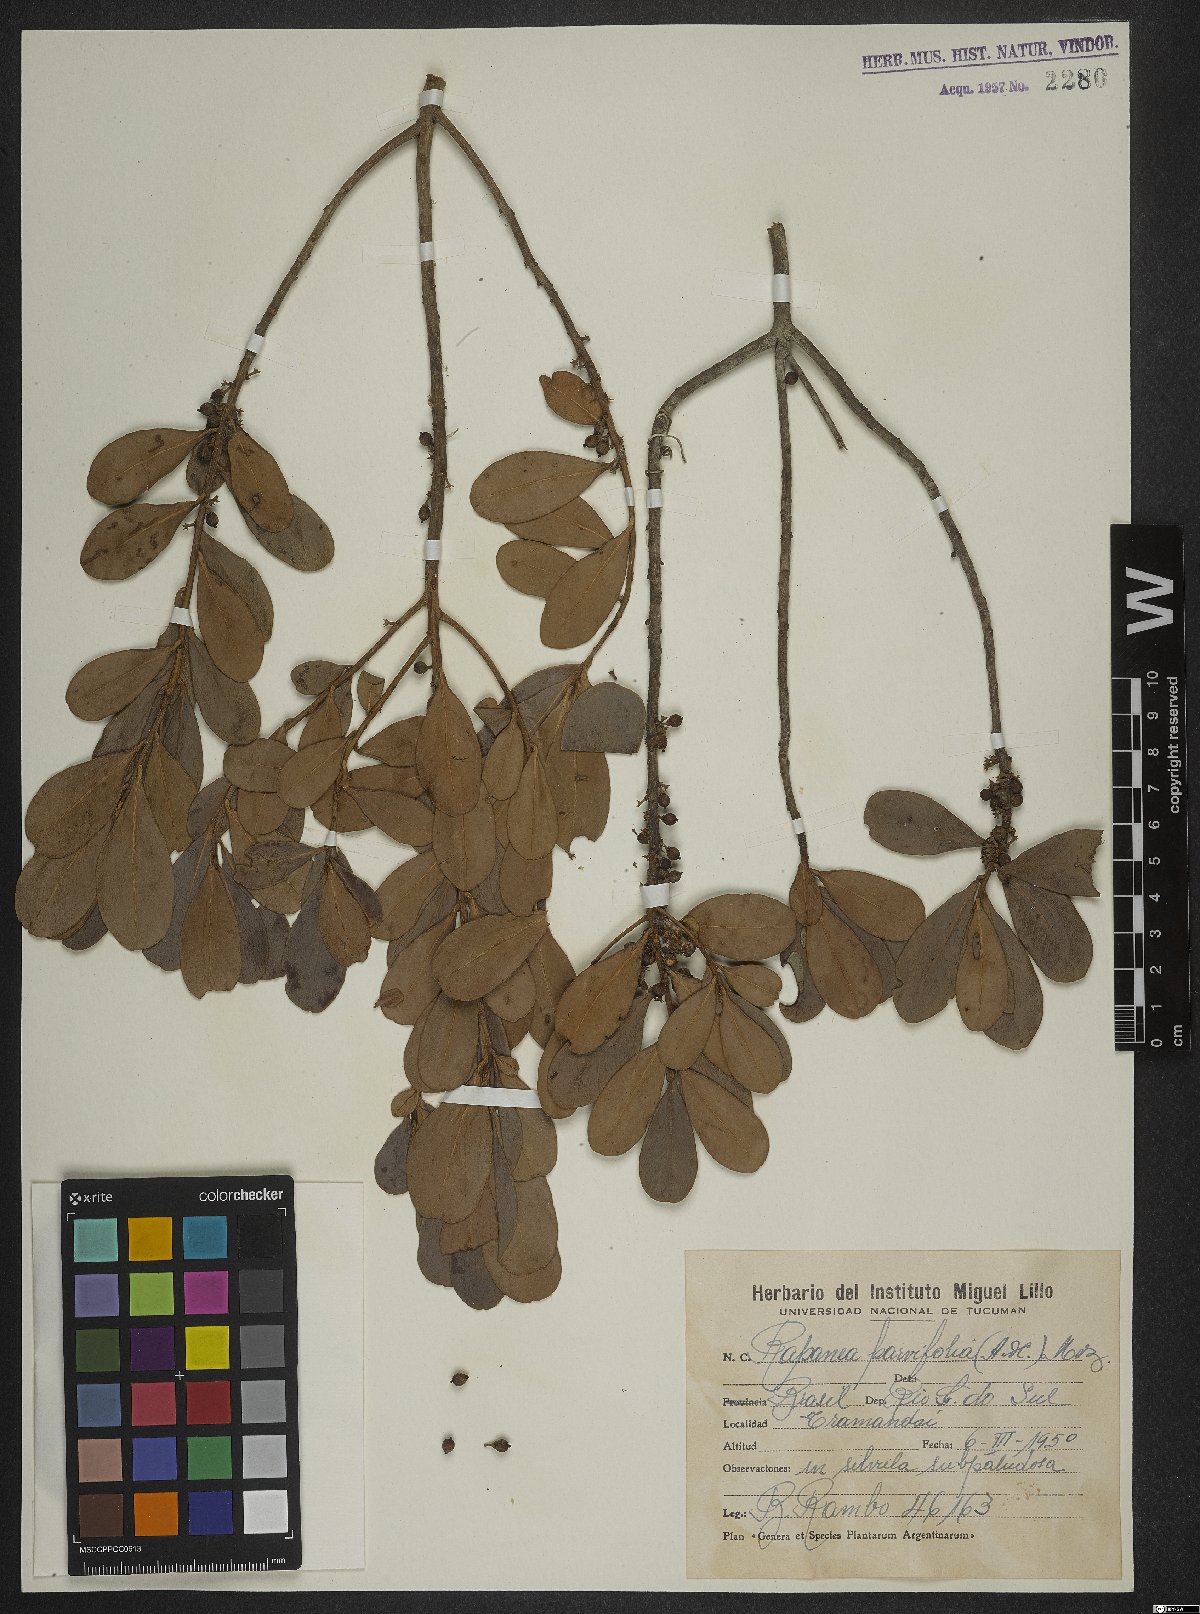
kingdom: Plantae
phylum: Tracheophyta
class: Magnoliopsida
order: Ericales
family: Primulaceae
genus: Myrsine
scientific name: Myrsine parvifolia
